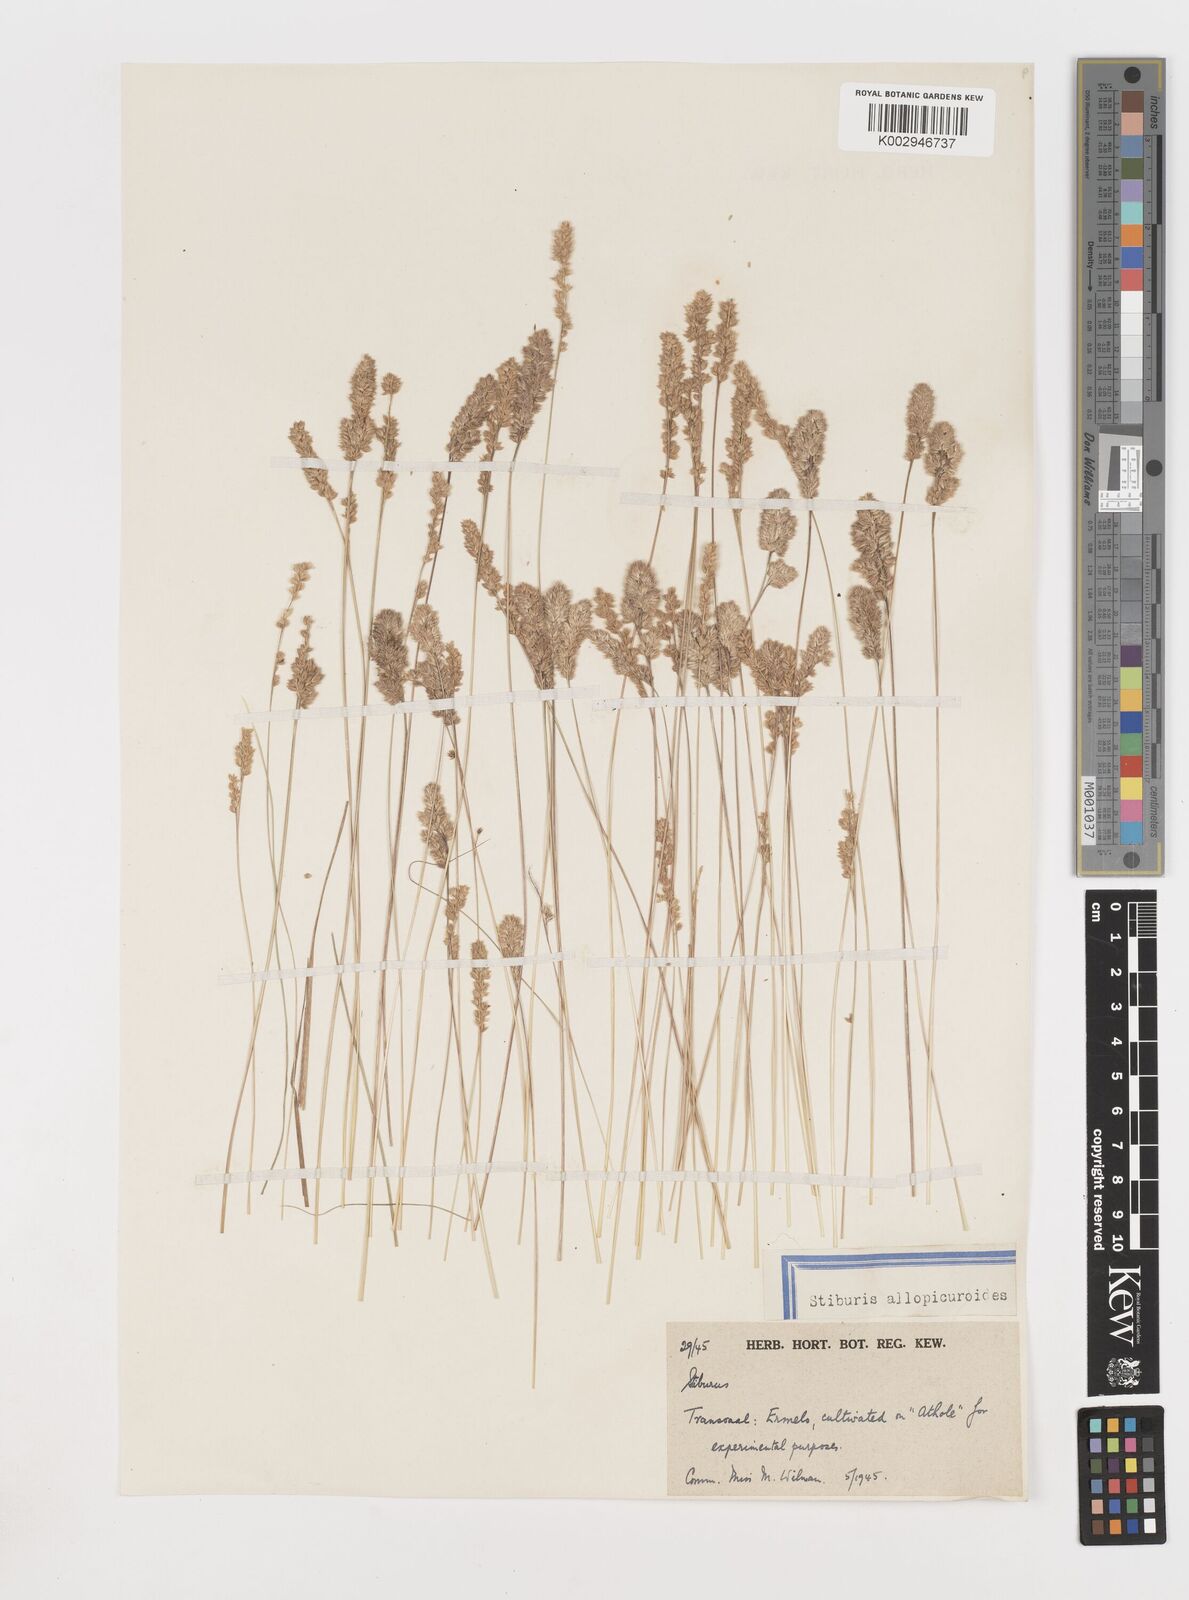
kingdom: Plantae
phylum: Tracheophyta
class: Liliopsida
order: Poales
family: Poaceae
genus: Stiburus
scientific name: Stiburus conrathii
